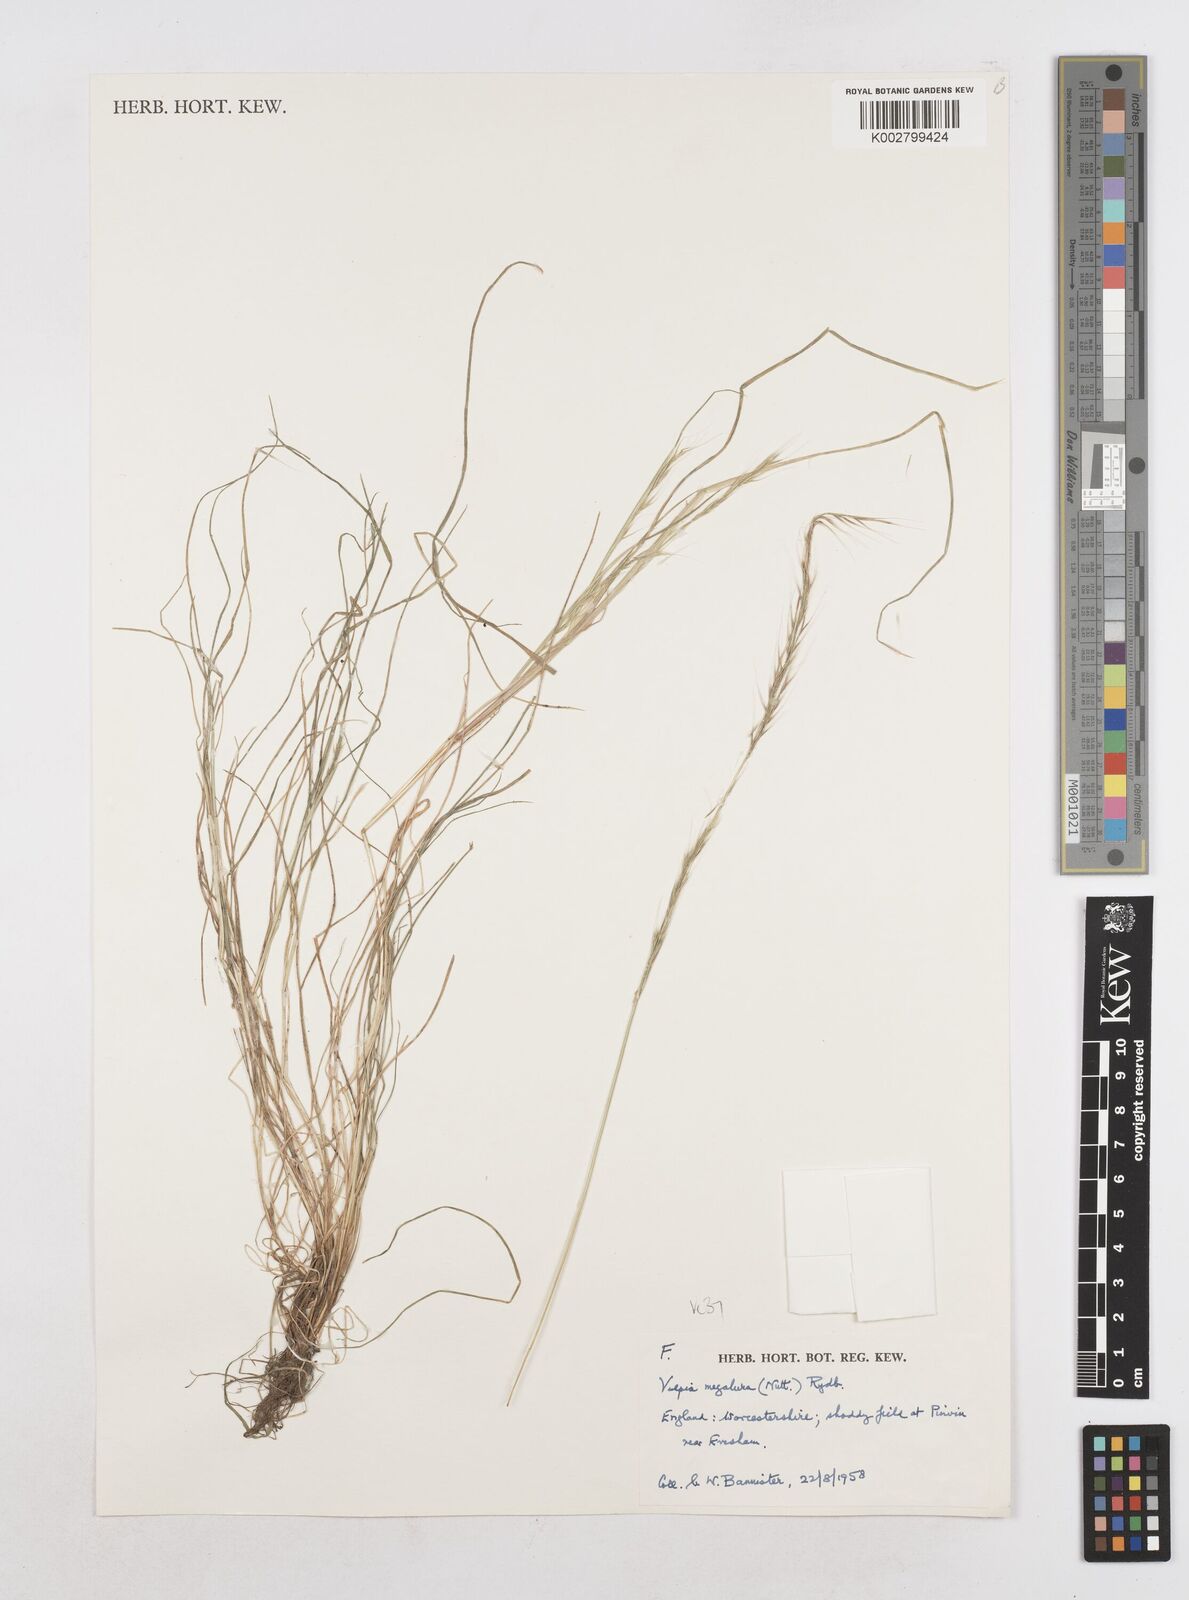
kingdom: Plantae
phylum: Tracheophyta
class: Liliopsida
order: Poales
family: Poaceae
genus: Festuca
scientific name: Festuca myuros
